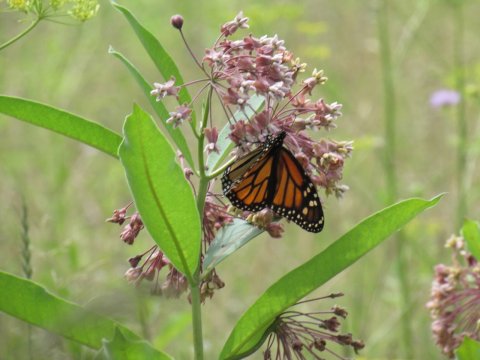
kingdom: Animalia
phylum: Arthropoda
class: Insecta
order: Lepidoptera
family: Nymphalidae
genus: Danaus
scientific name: Danaus plexippus
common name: Monarch
